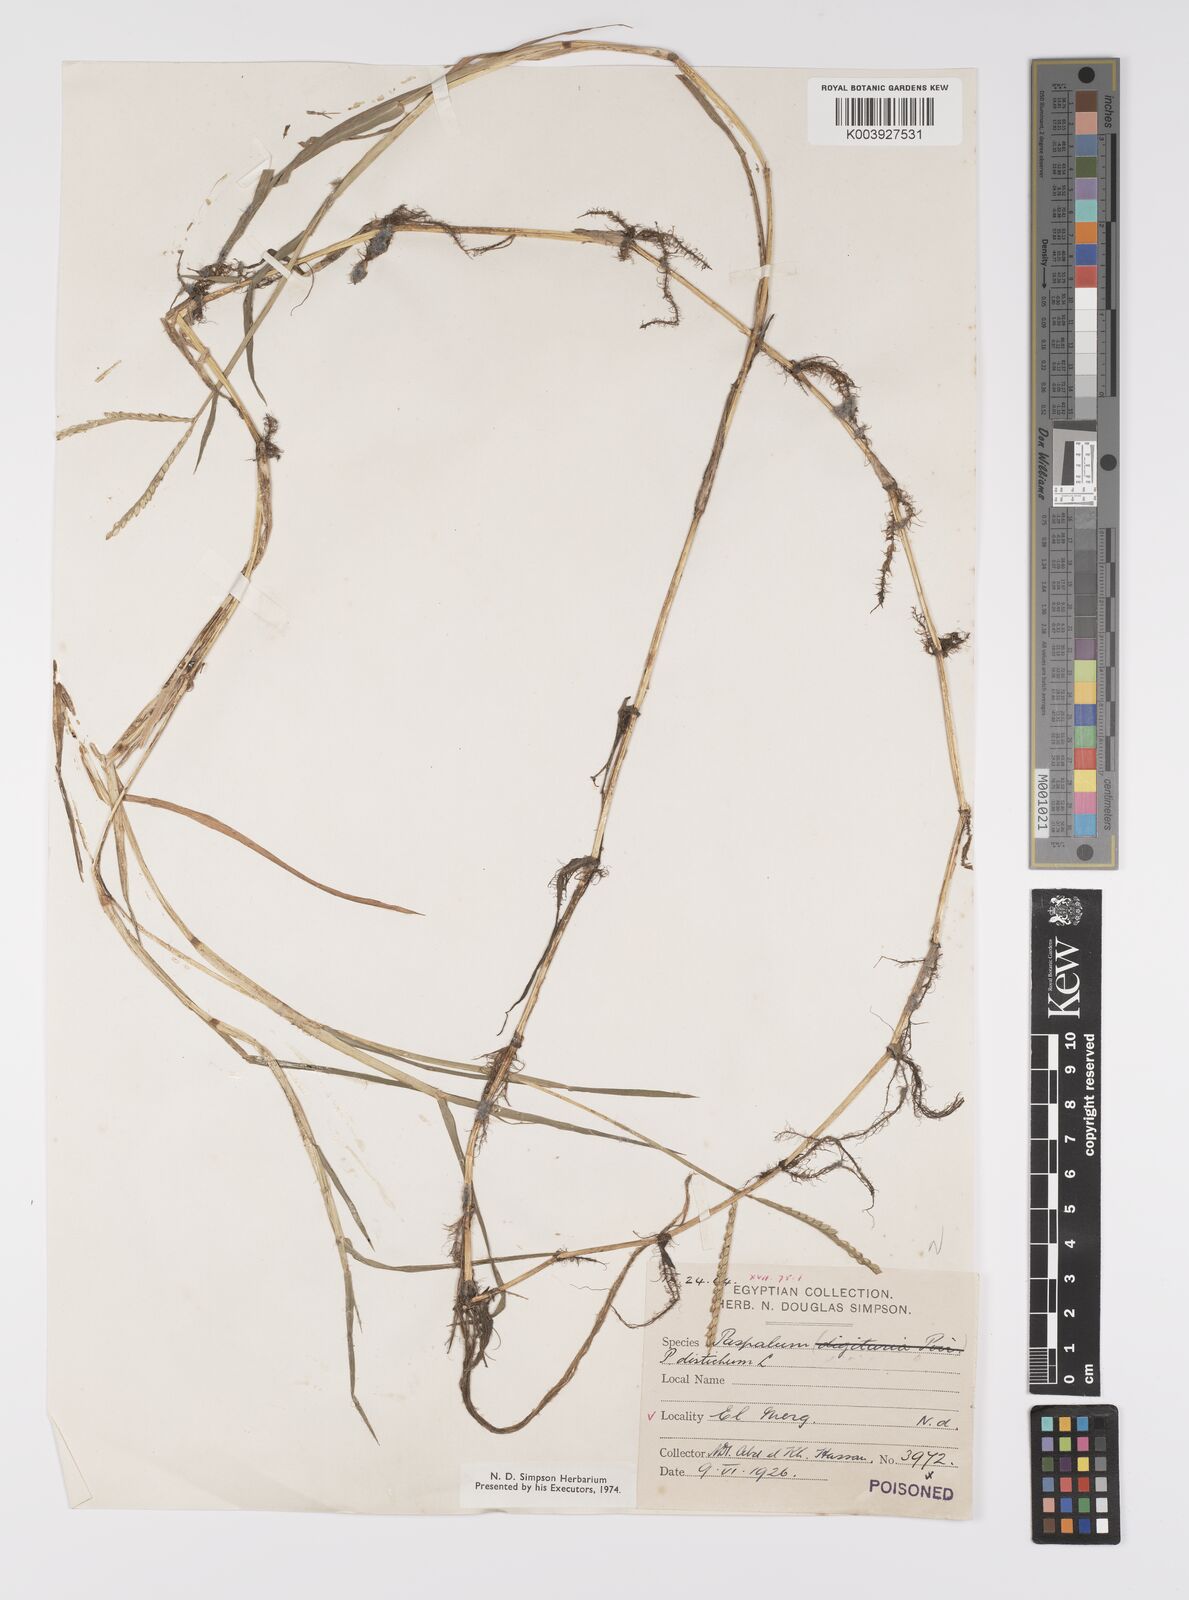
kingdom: Plantae
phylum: Tracheophyta
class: Liliopsida
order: Poales
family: Poaceae
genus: Paspalum
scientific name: Paspalum distichum
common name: Knotgrass
